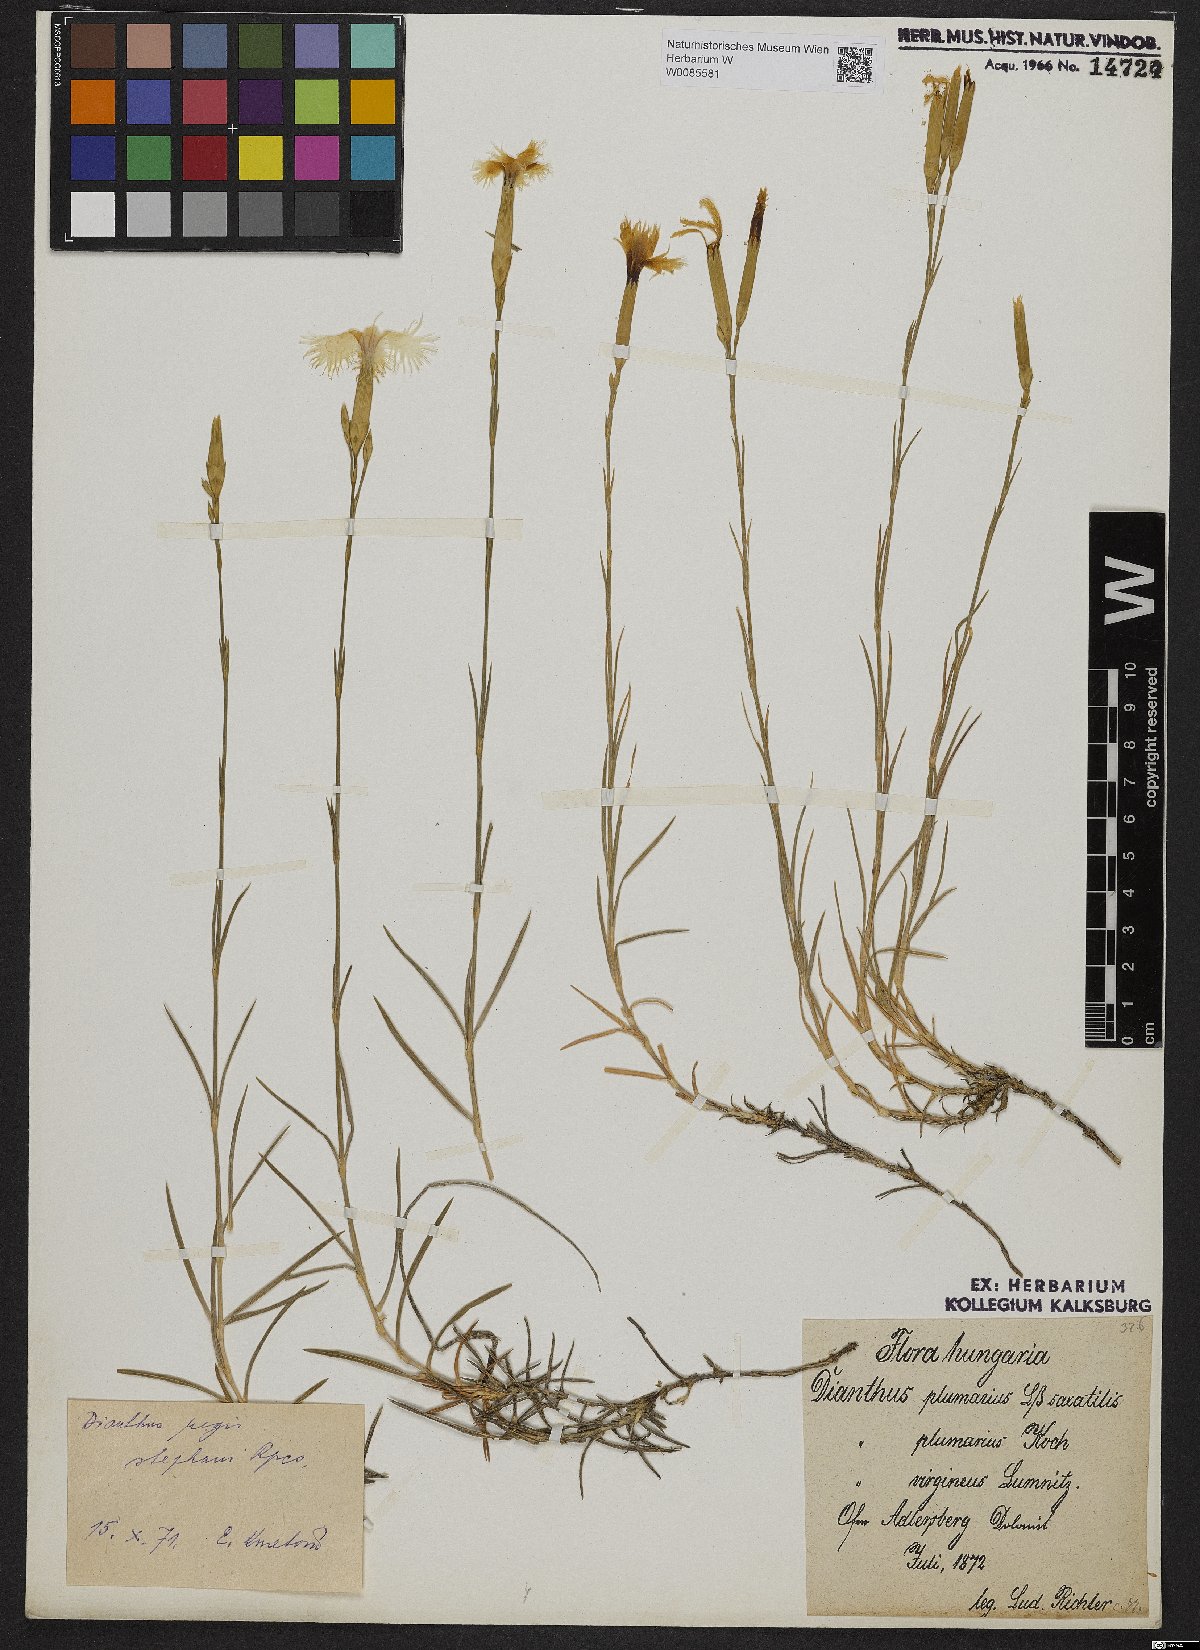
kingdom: Plantae
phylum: Tracheophyta
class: Magnoliopsida
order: Caryophyllales
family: Caryophyllaceae
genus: Dianthus
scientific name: Dianthus plumarius
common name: Pink
